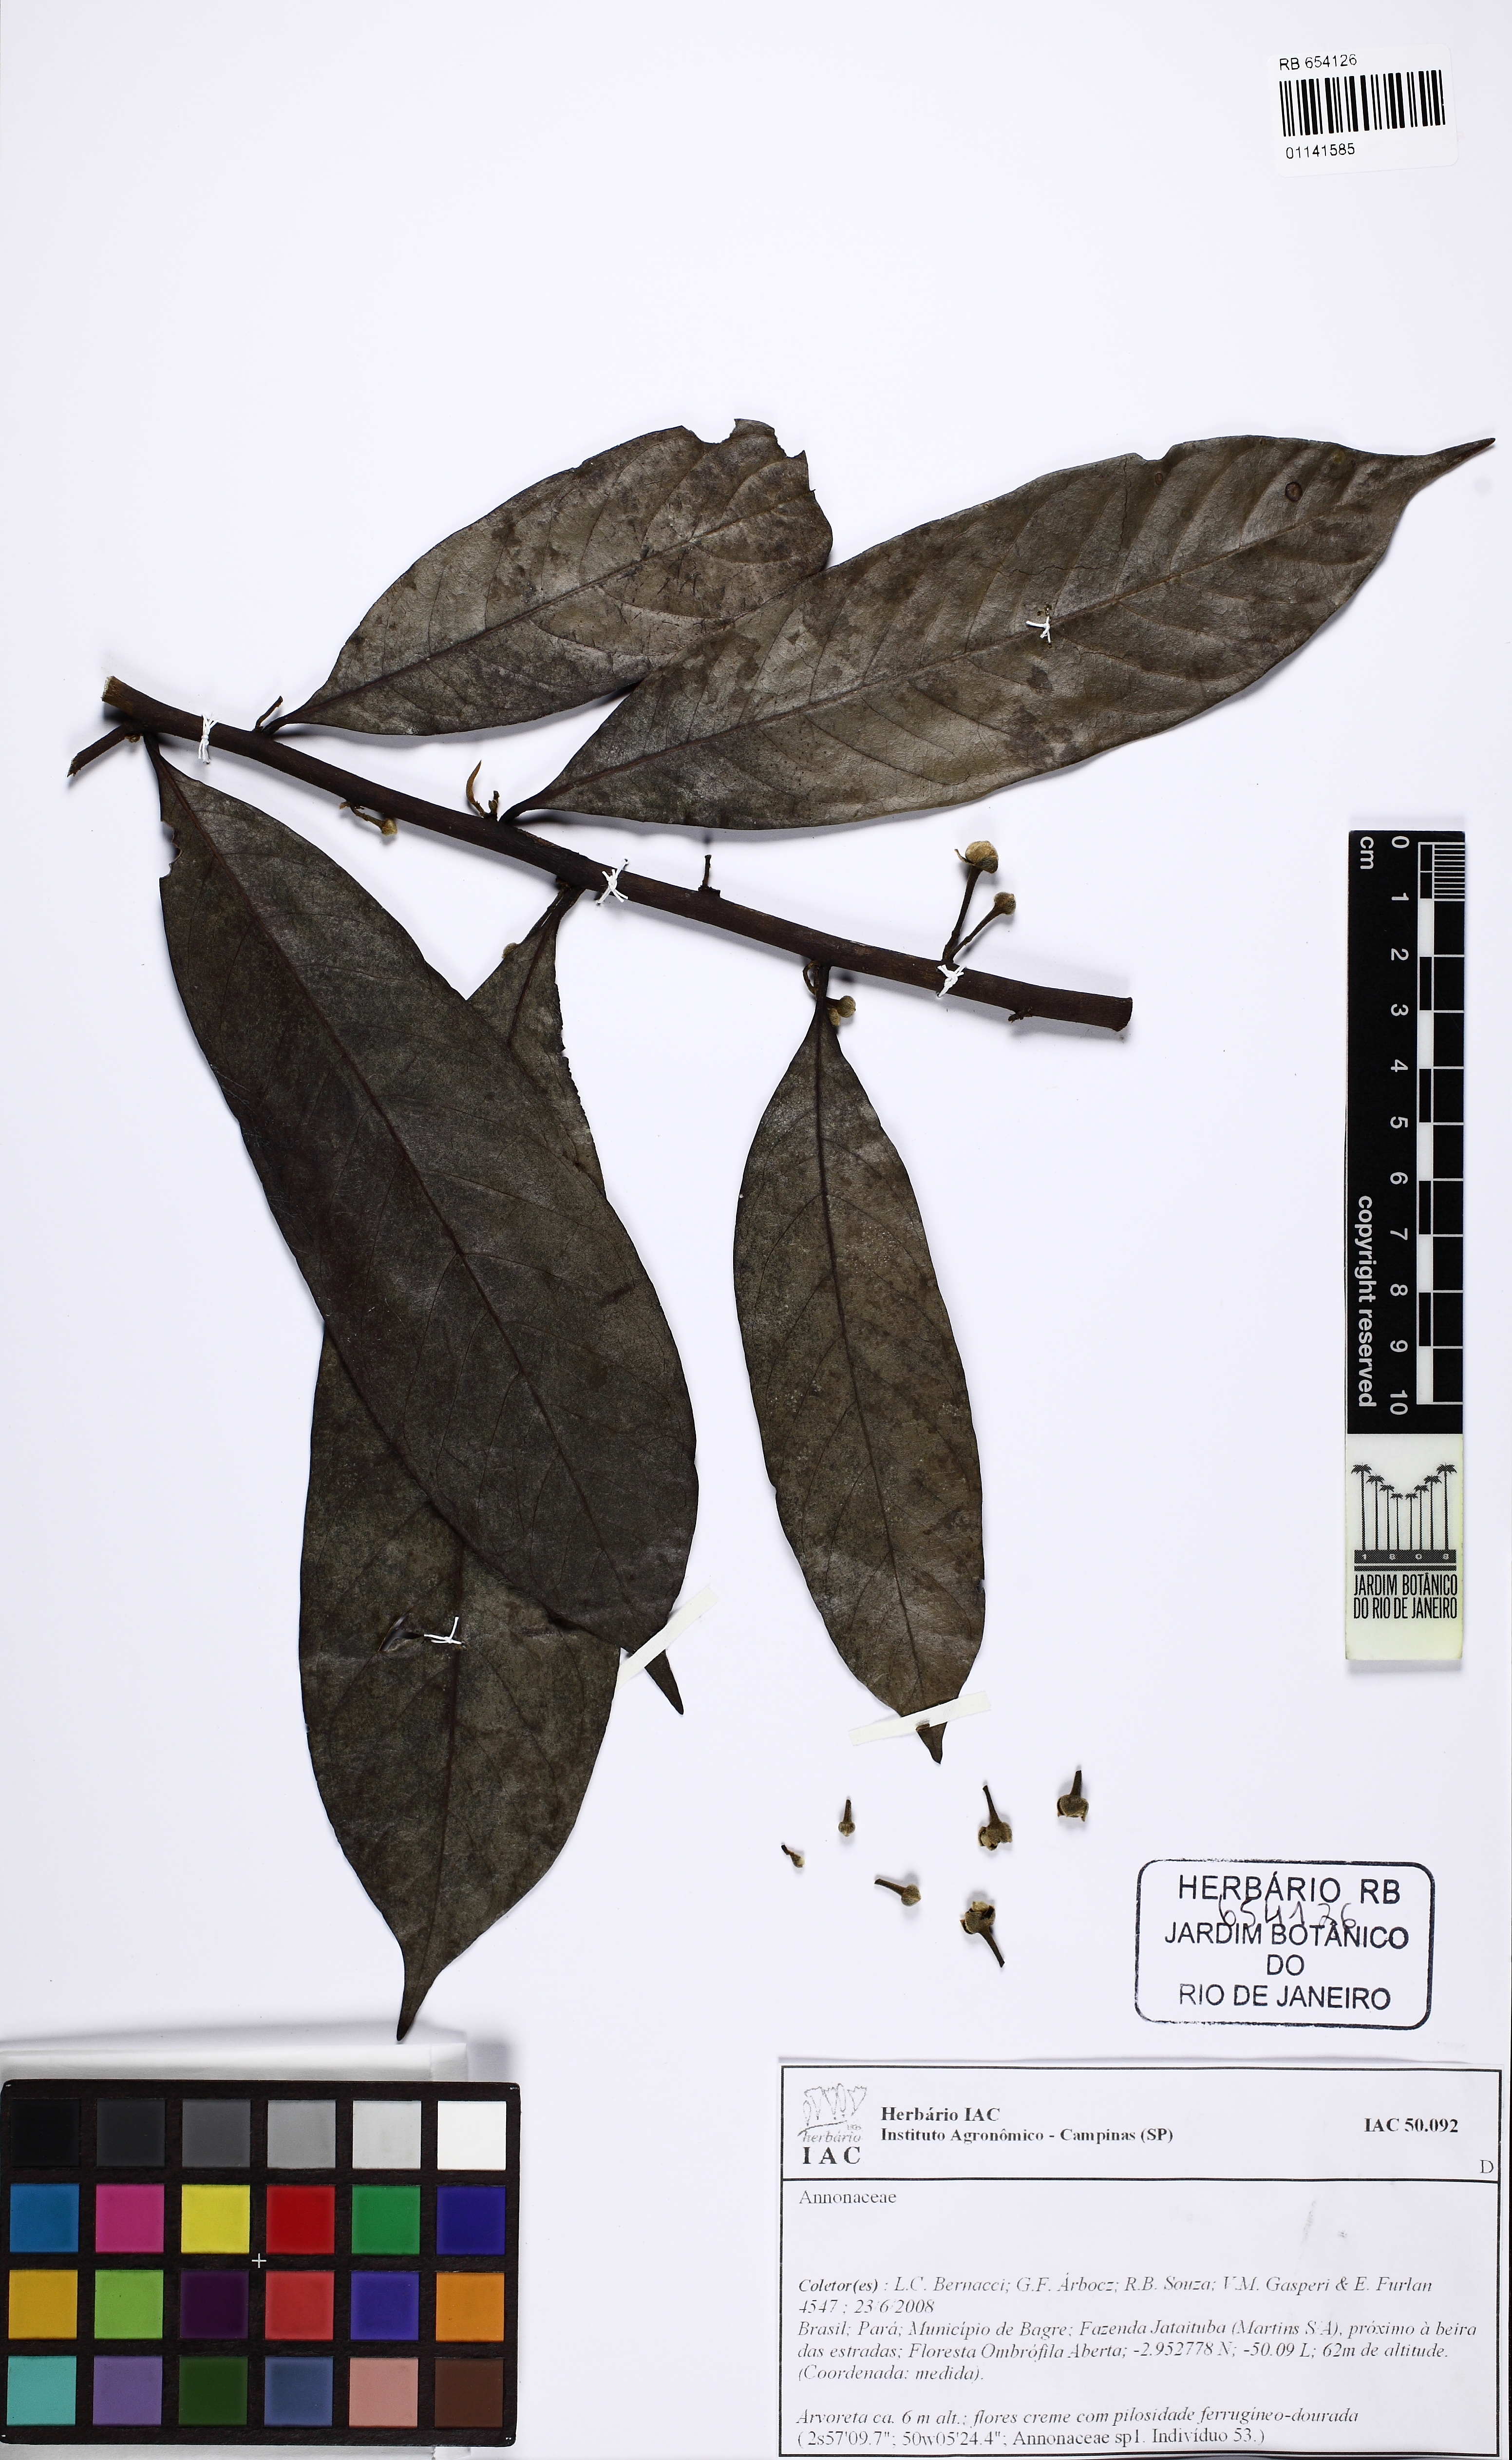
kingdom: Plantae
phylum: Tracheophyta
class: Magnoliopsida
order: Magnoliales
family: Annonaceae
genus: Guatteria
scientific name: Guatteria
